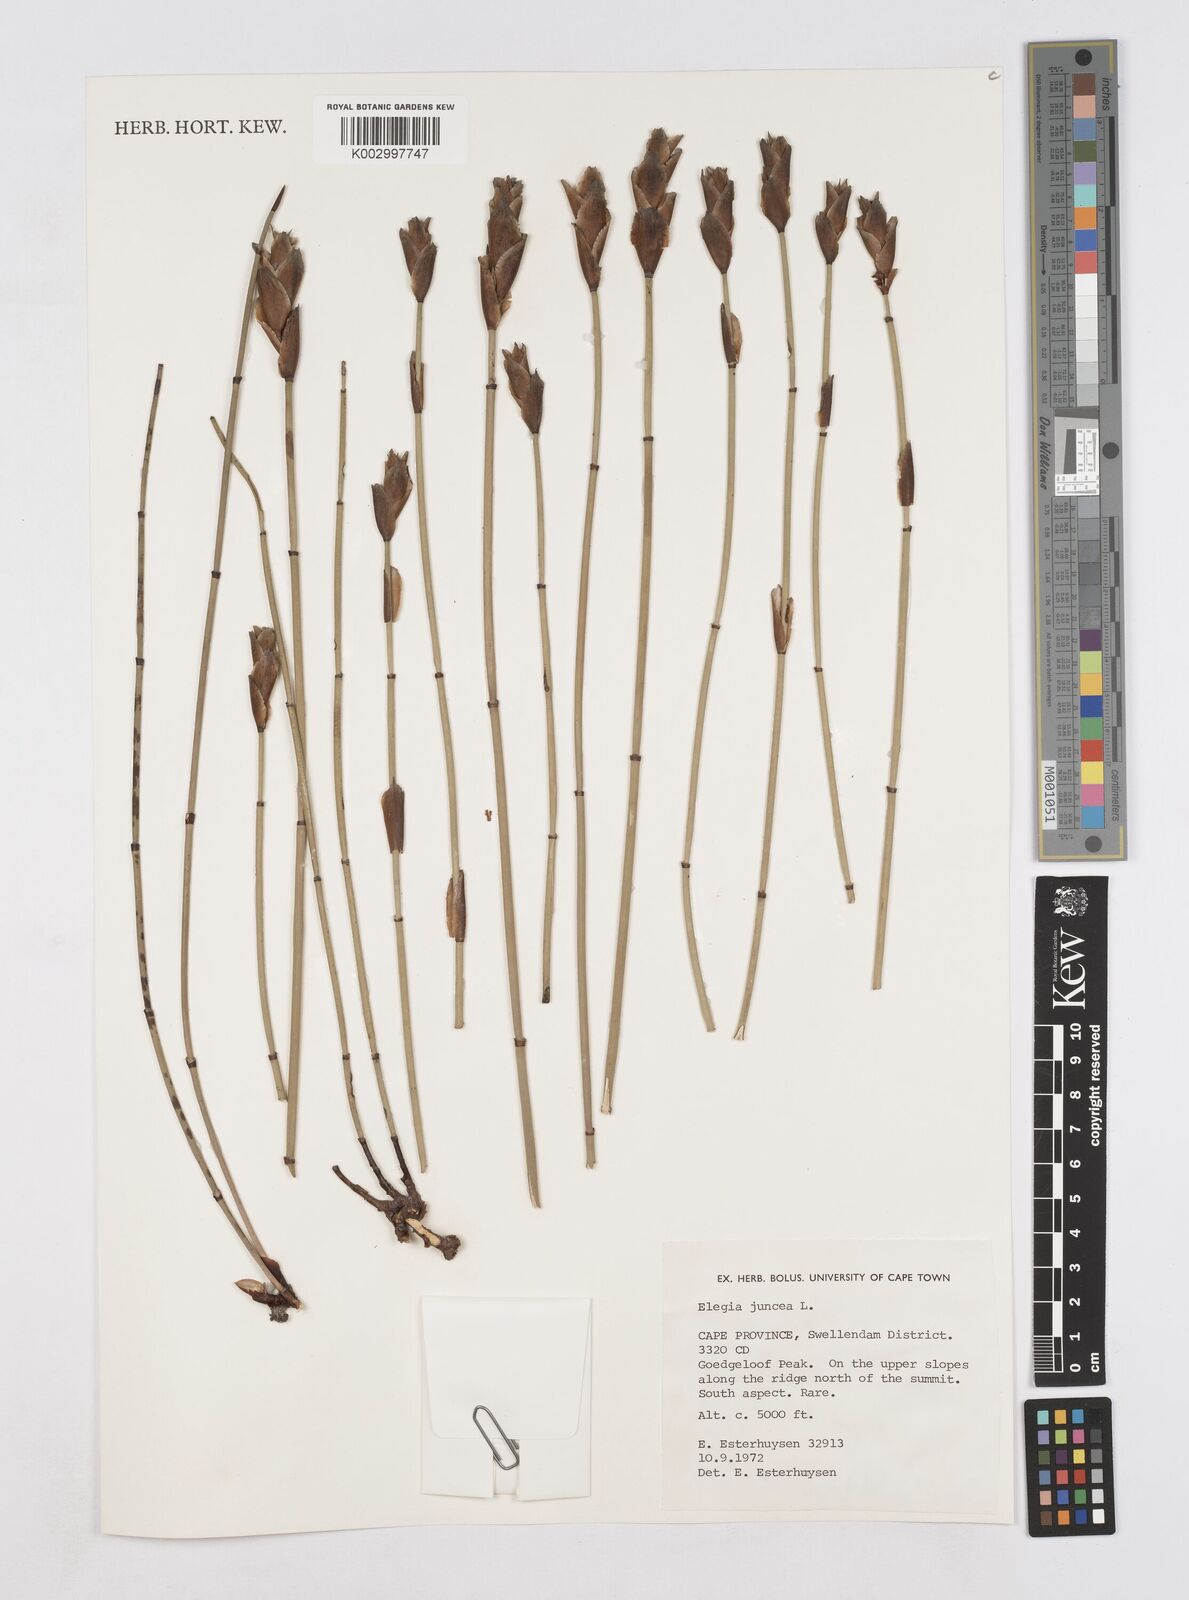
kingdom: Plantae
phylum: Tracheophyta
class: Liliopsida
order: Poales
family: Restionaceae
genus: Elegia
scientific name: Elegia juncea
